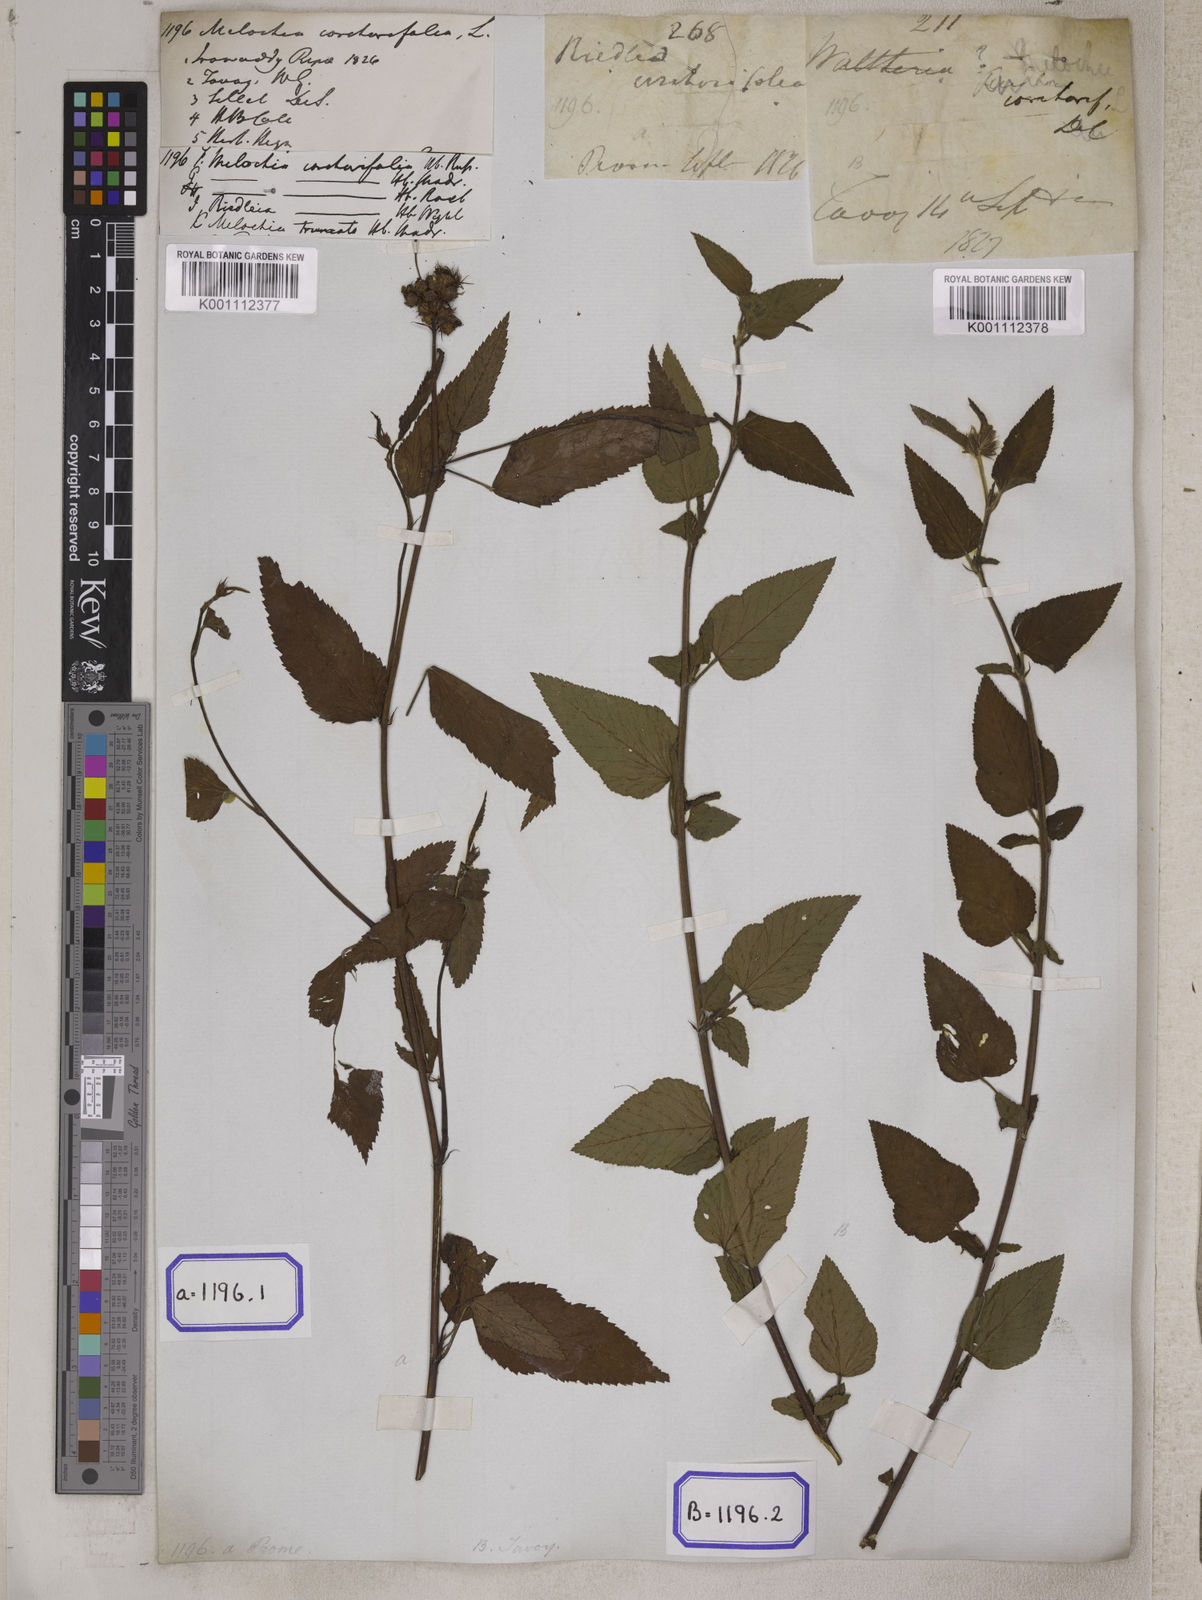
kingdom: Plantae
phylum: Tracheophyta
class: Magnoliopsida
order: Malvales
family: Malvaceae
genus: Melochia
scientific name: Melochia corchorifolia
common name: Chocolateweed
